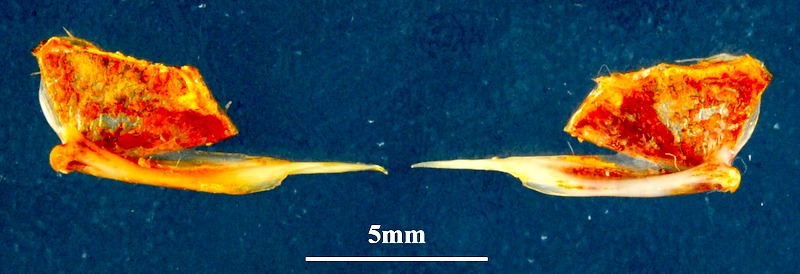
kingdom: Animalia
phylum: Chordata
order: Mugiliformes
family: Mugilidae
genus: Chelon
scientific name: Chelon saliens
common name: Leaping mullet
